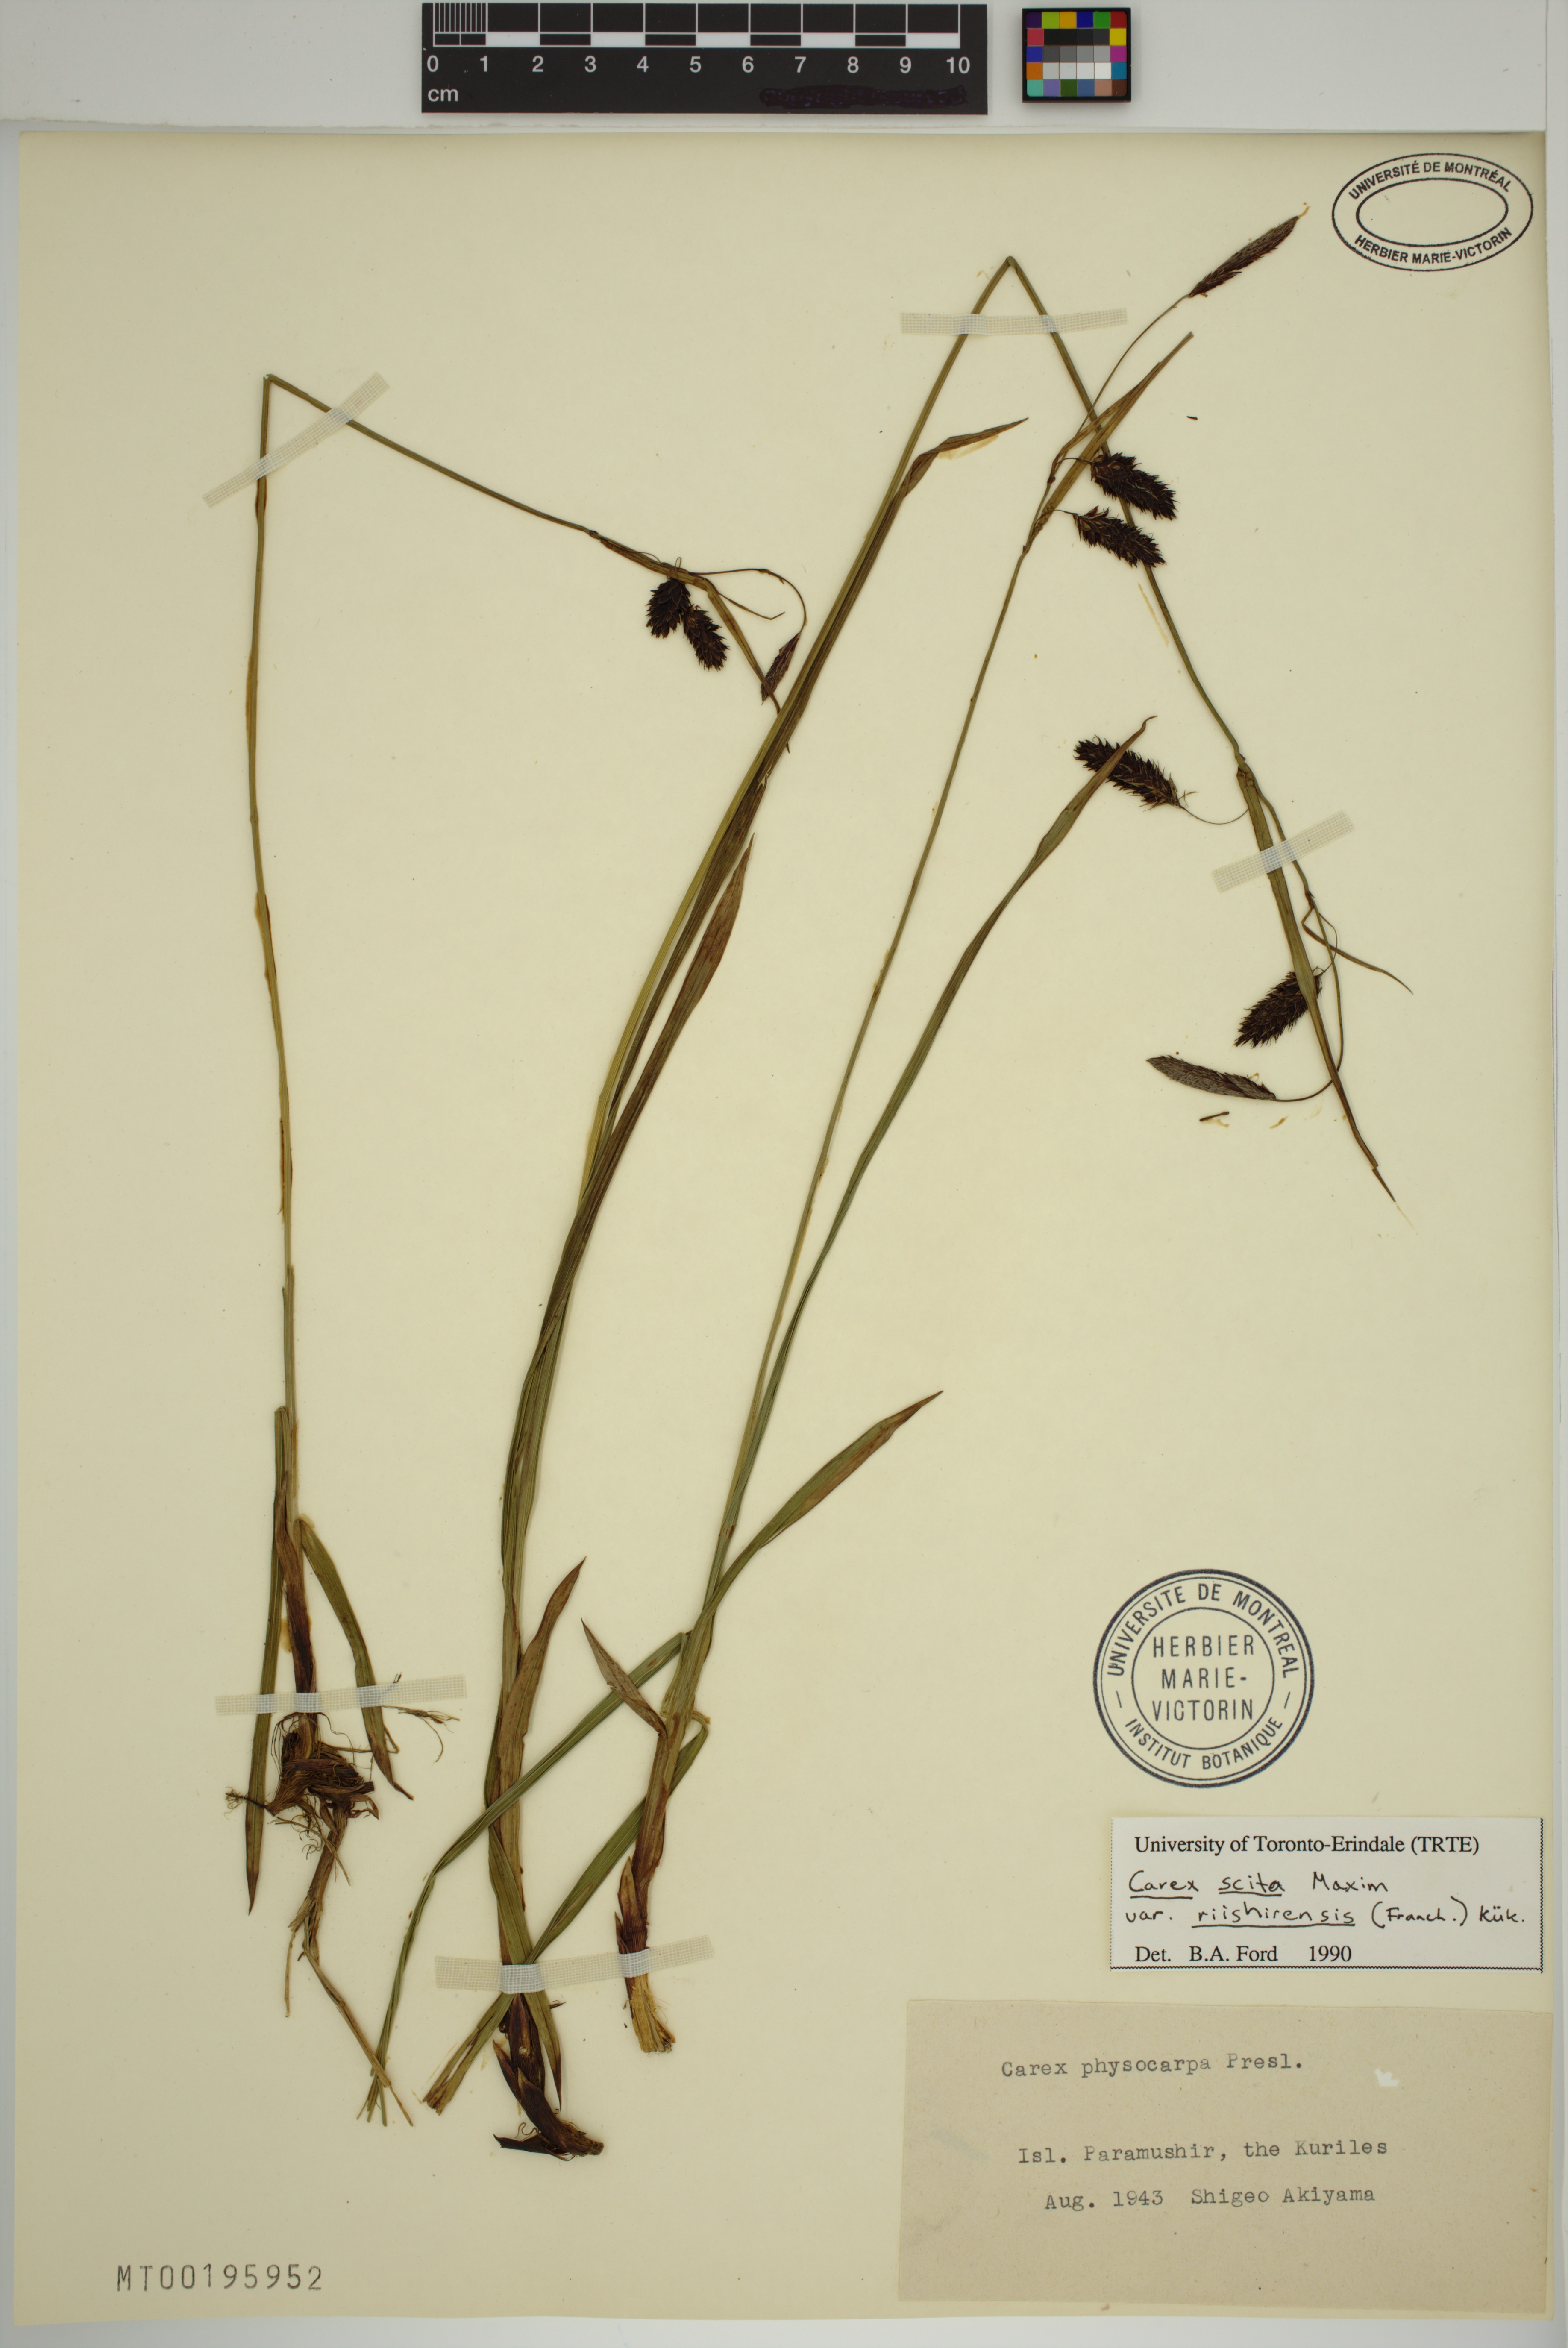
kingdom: Plantae
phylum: Tracheophyta
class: Liliopsida
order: Poales
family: Cyperaceae
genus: Carex
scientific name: Carex scita
